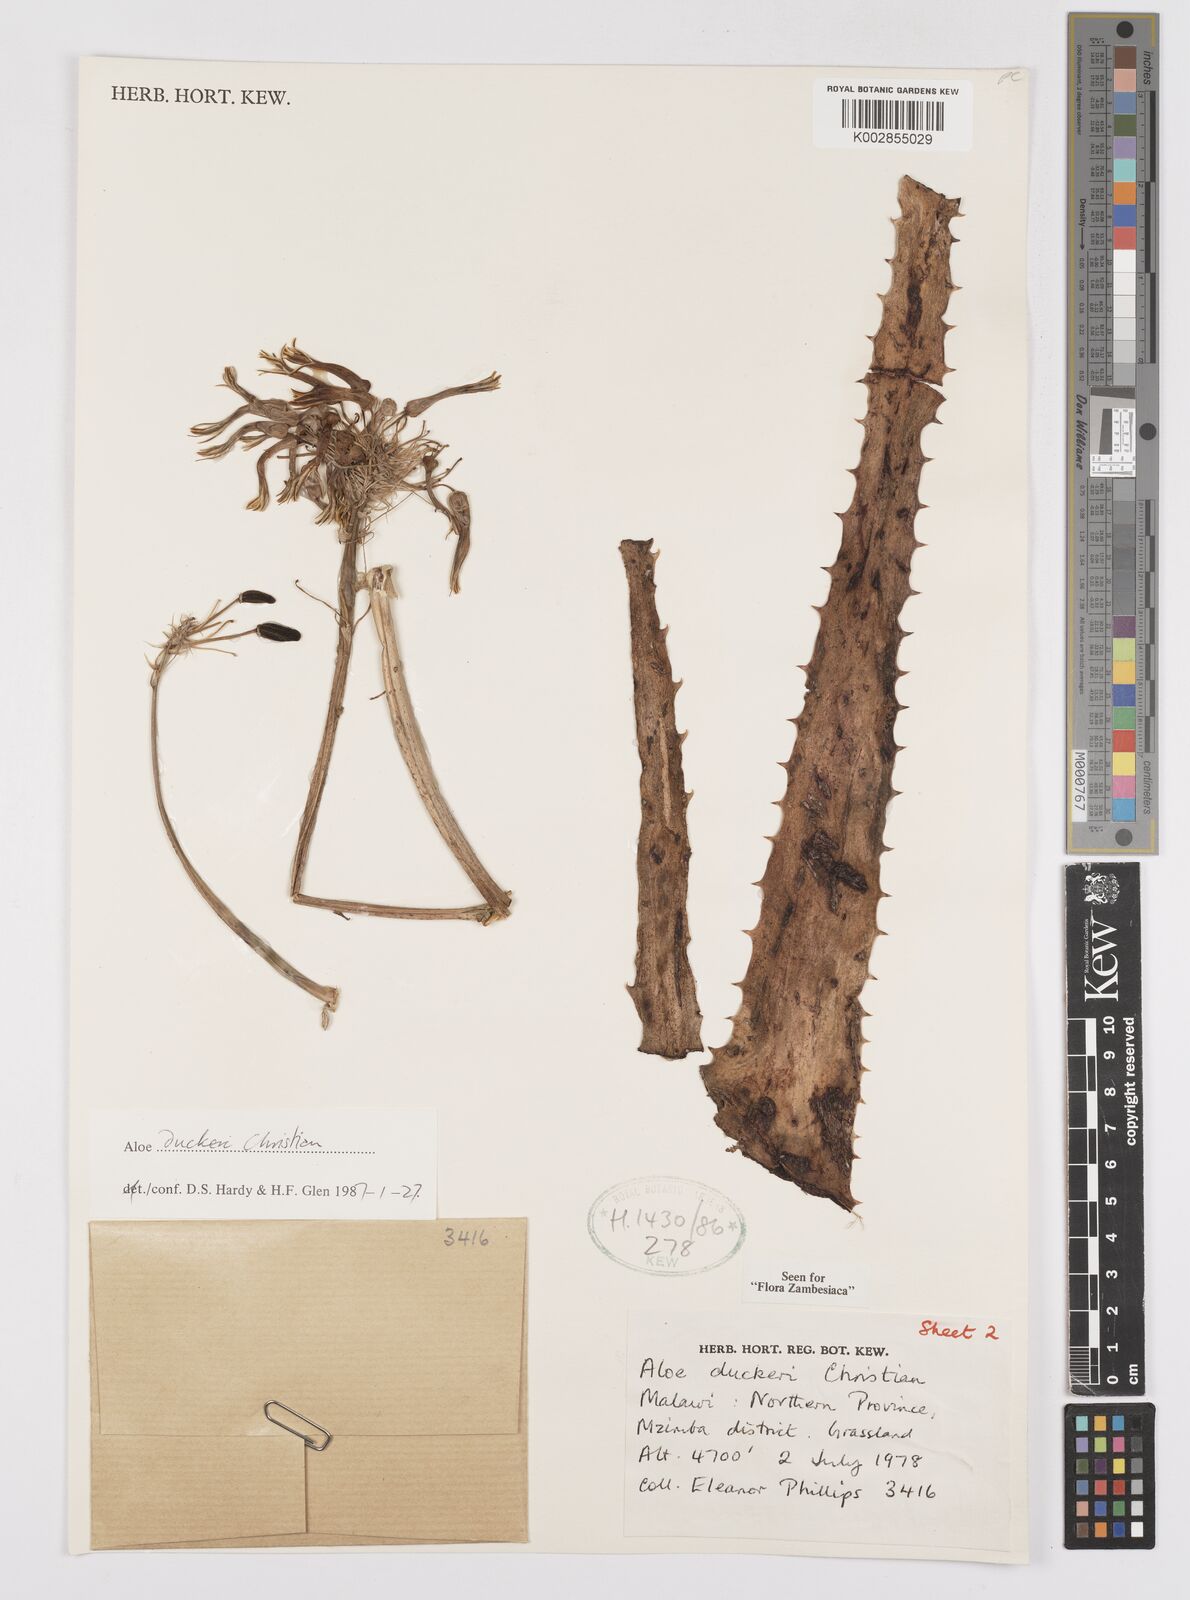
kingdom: Plantae
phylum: Tracheophyta
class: Liliopsida
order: Asparagales
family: Asphodelaceae
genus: Aloe
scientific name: Aloe duckeri
